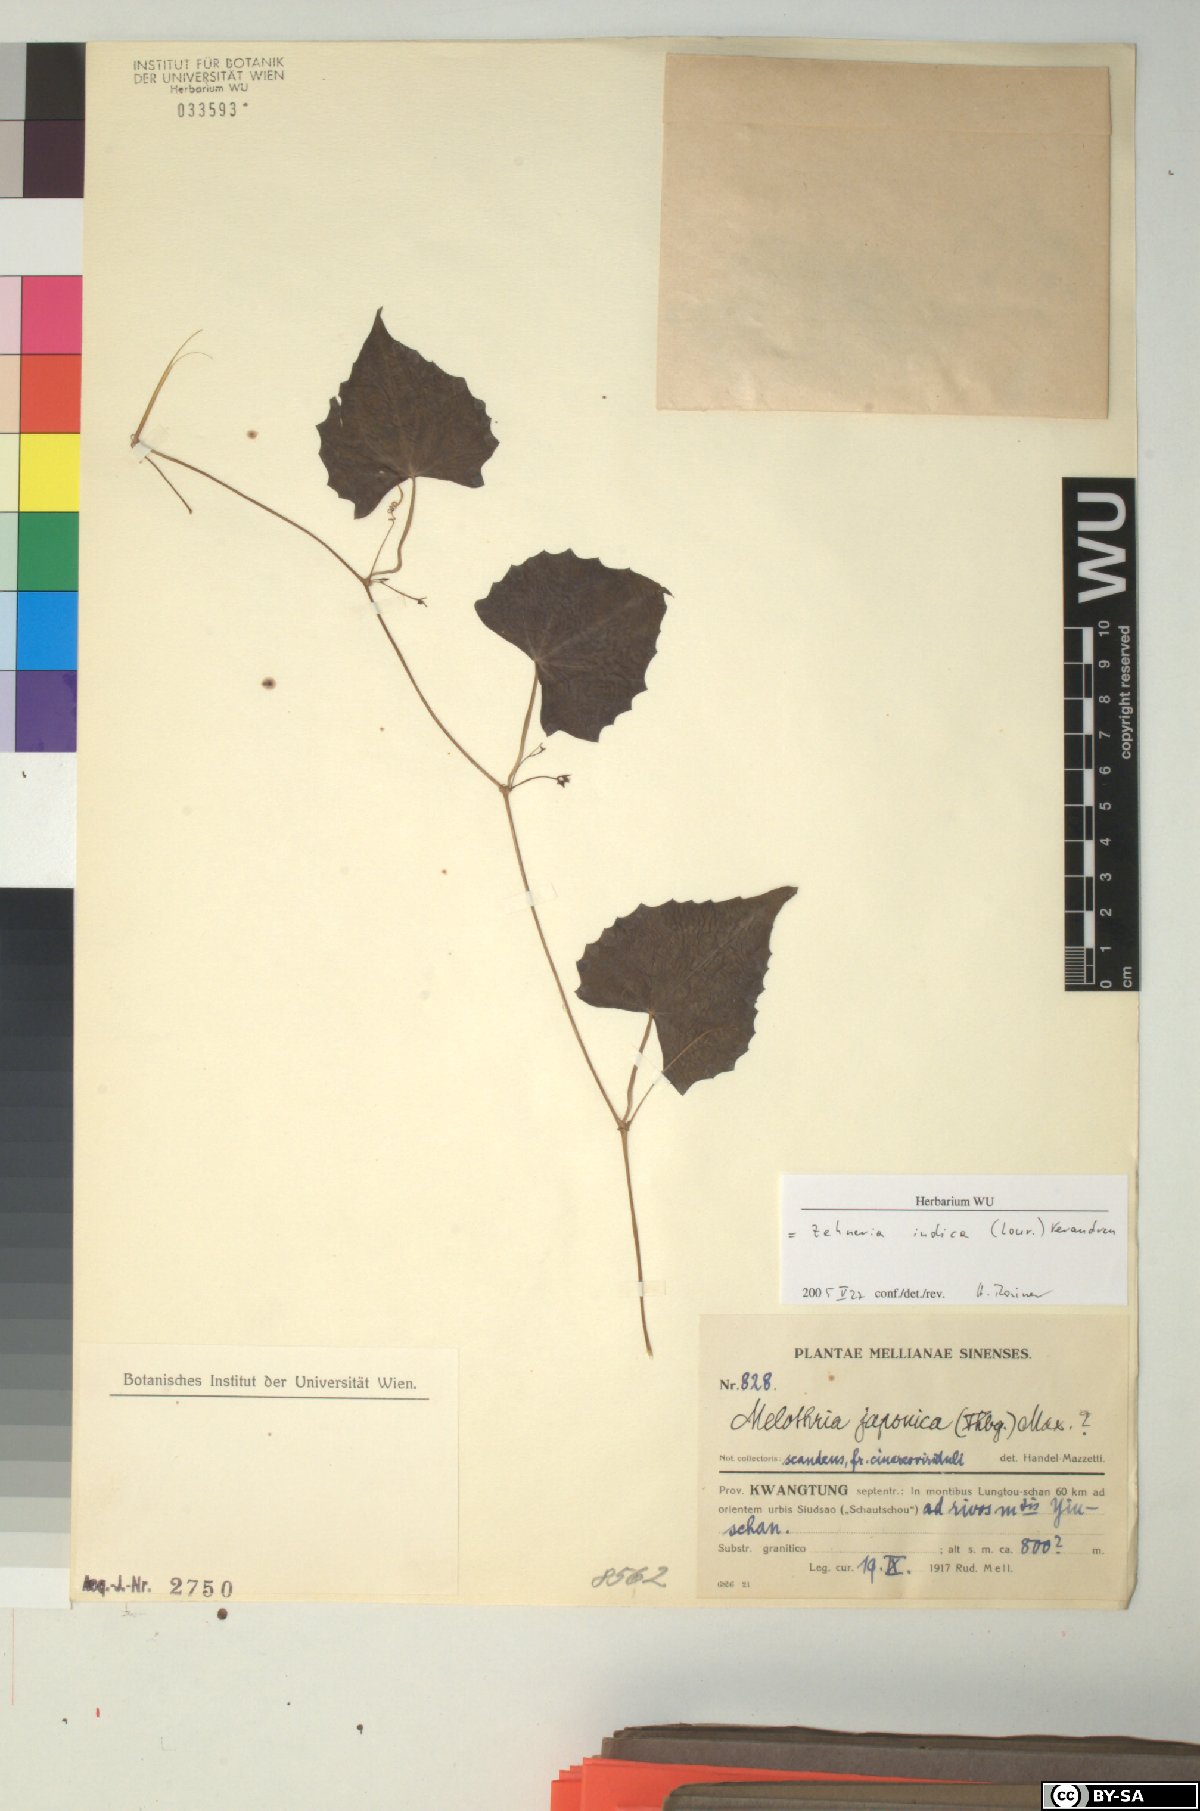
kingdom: Plantae
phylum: Tracheophyta
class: Magnoliopsida
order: Cucurbitales
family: Cucurbitaceae
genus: Zehneria
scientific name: Zehneria odorata
